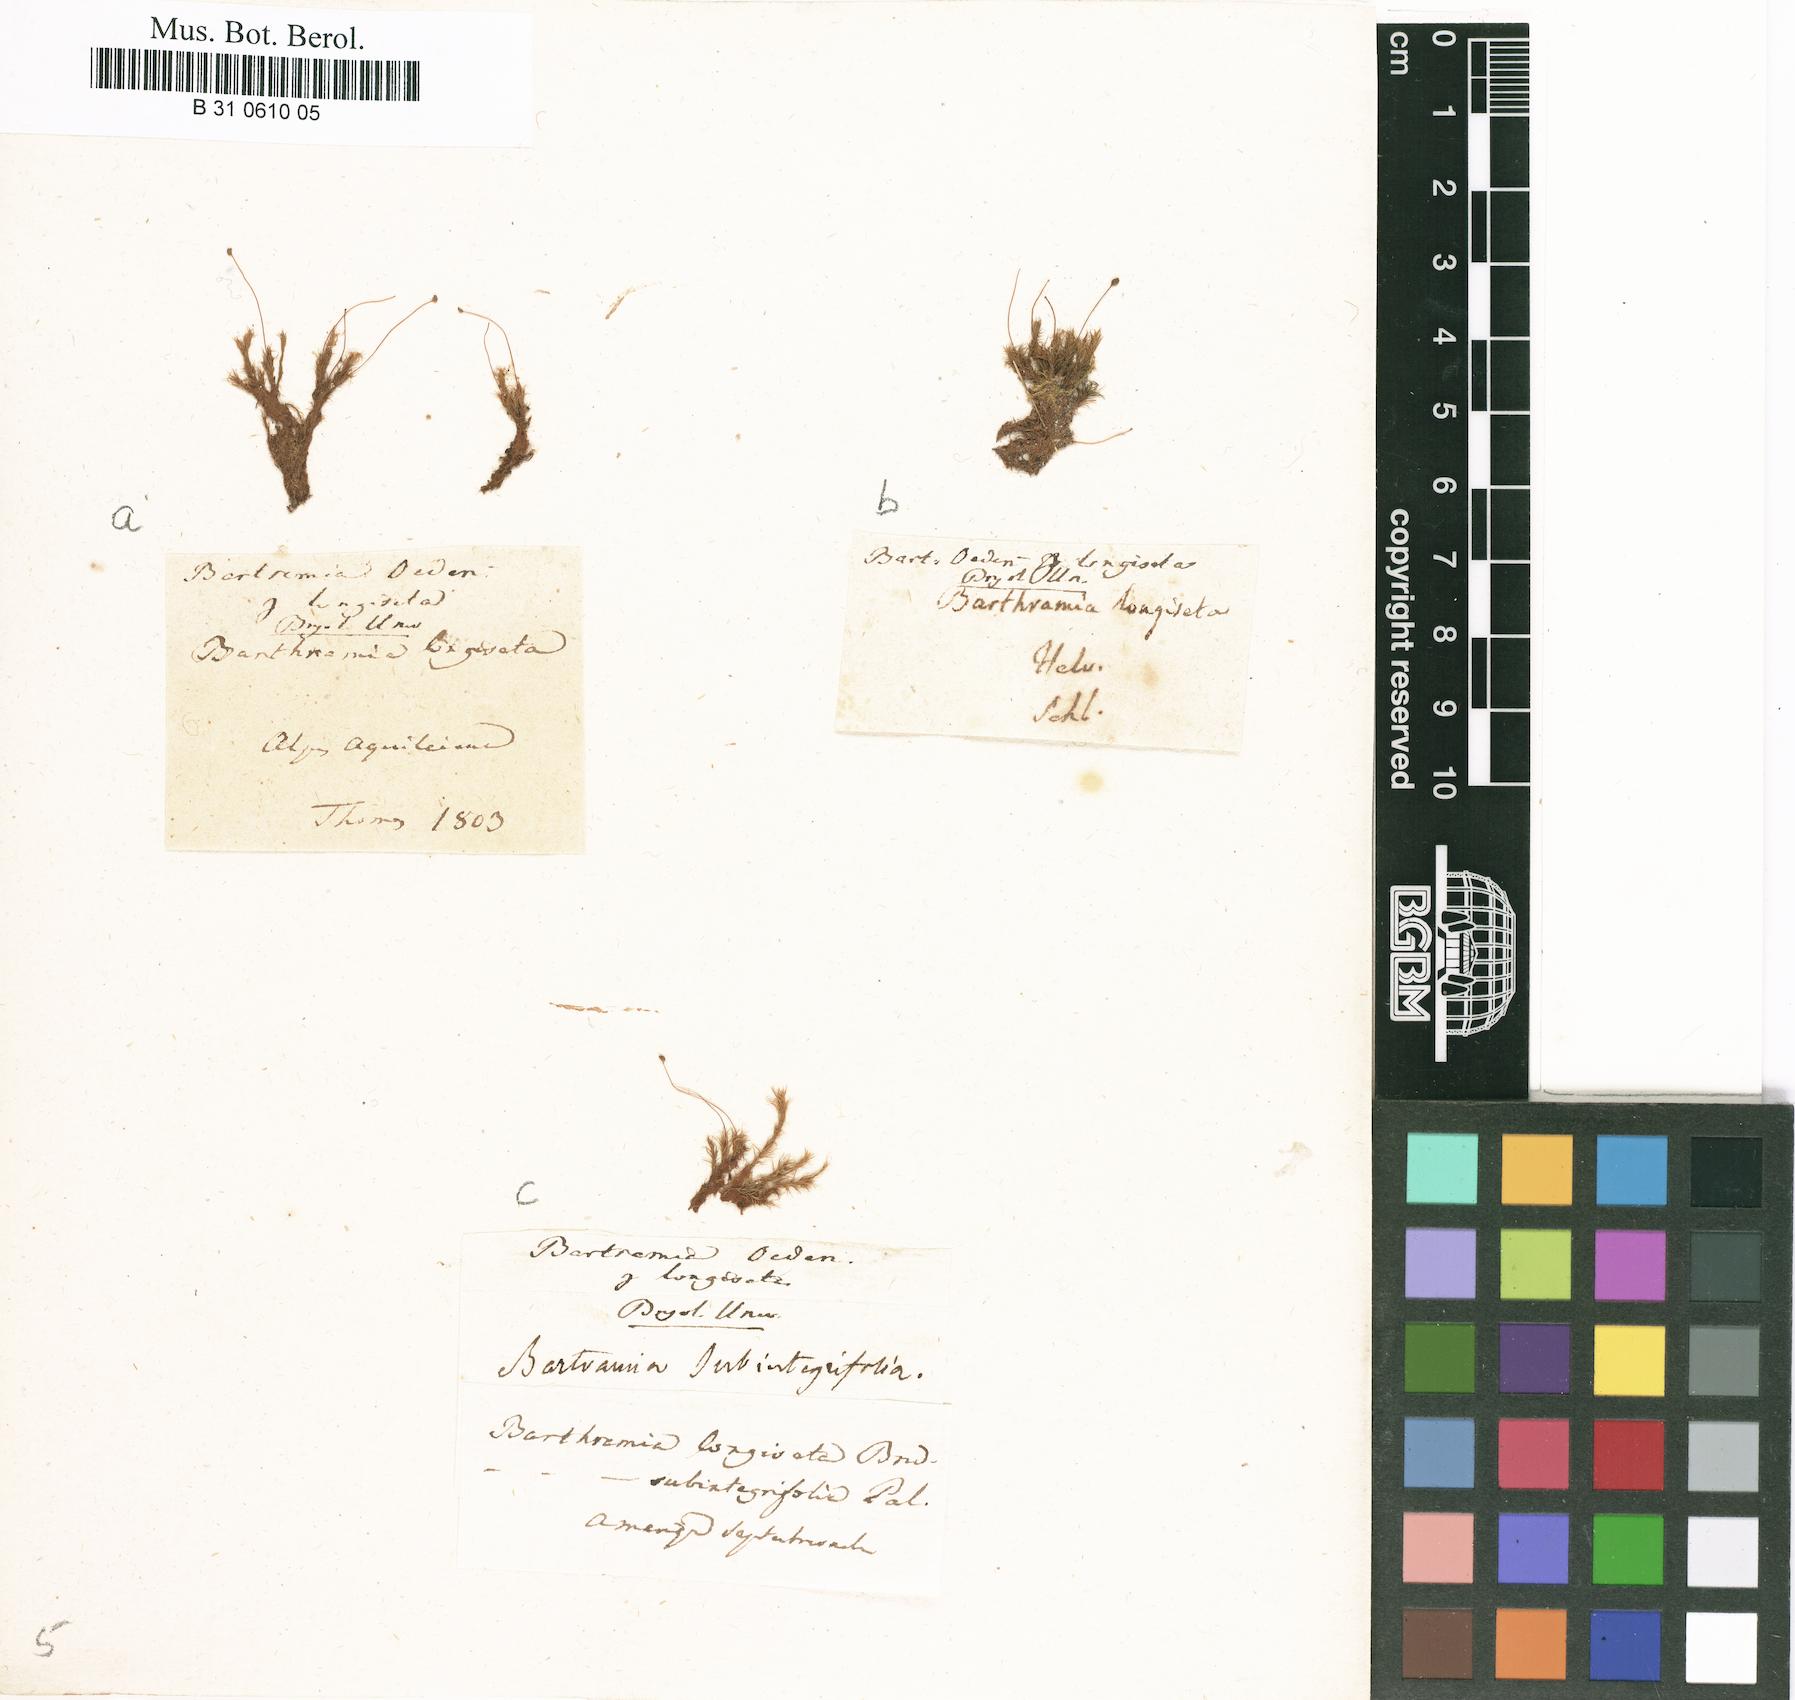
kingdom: Plantae
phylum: Bryophyta
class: Bryopsida
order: Bartramiales
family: Bartramiaceae
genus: Plagiopus
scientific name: Plagiopus oederianus
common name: Oeder's apple moss
